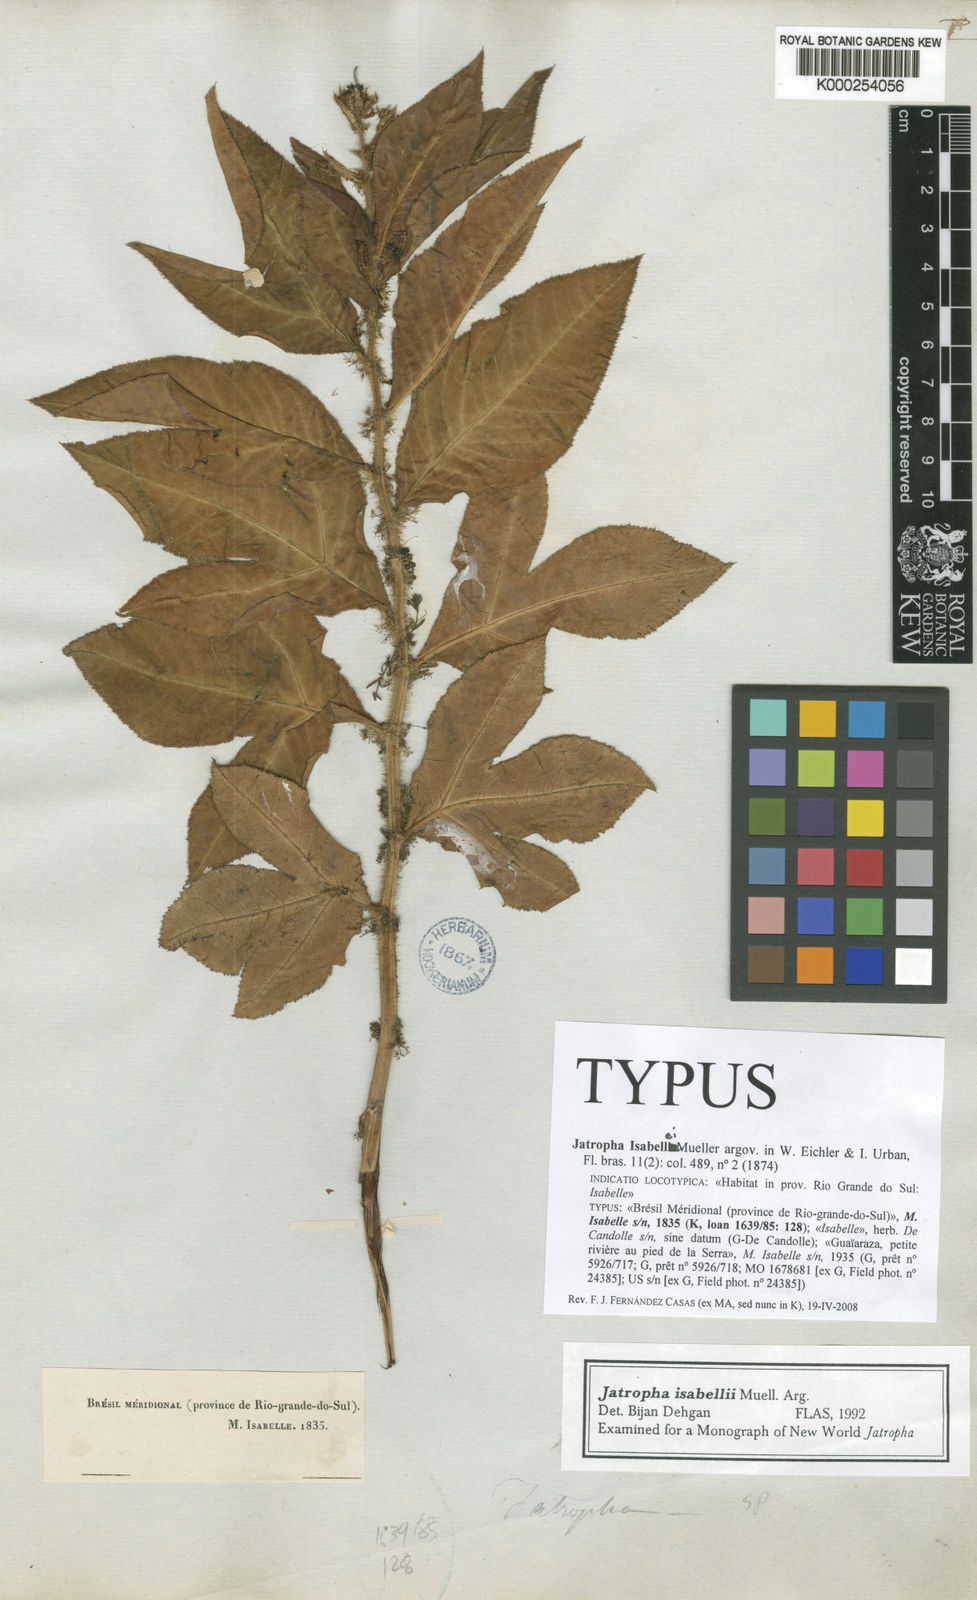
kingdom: Plantae
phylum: Tracheophyta
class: Magnoliopsida
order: Malpighiales
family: Euphorbiaceae
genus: Jatropha
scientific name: Jatropha
